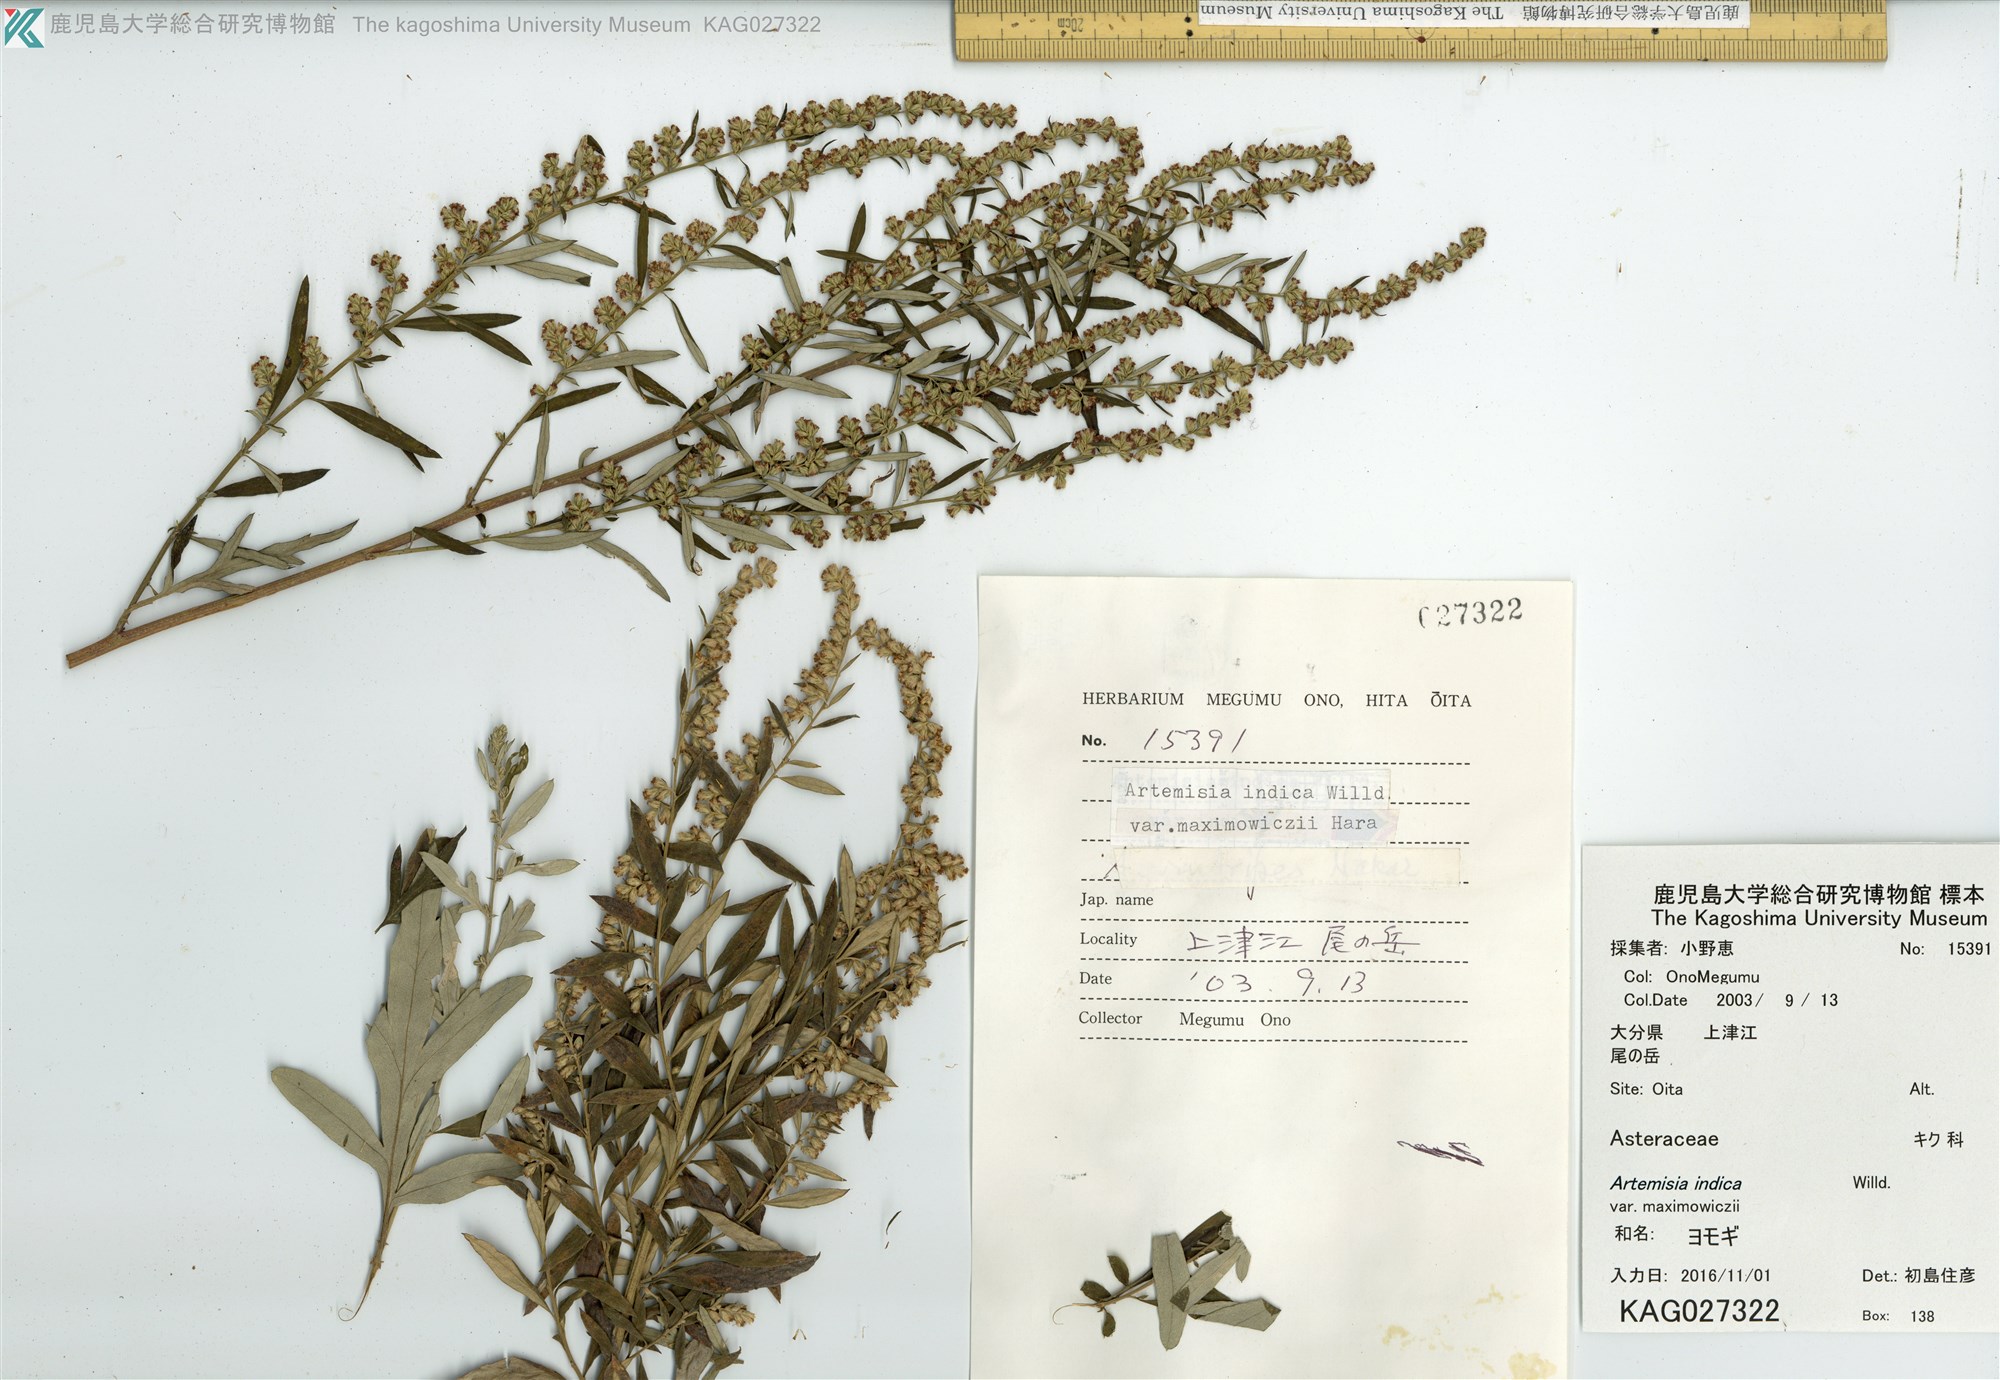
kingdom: Plantae
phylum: Tracheophyta
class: Magnoliopsida
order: Asterales
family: Asteraceae
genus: Artemisia
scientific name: Artemisia princeps
